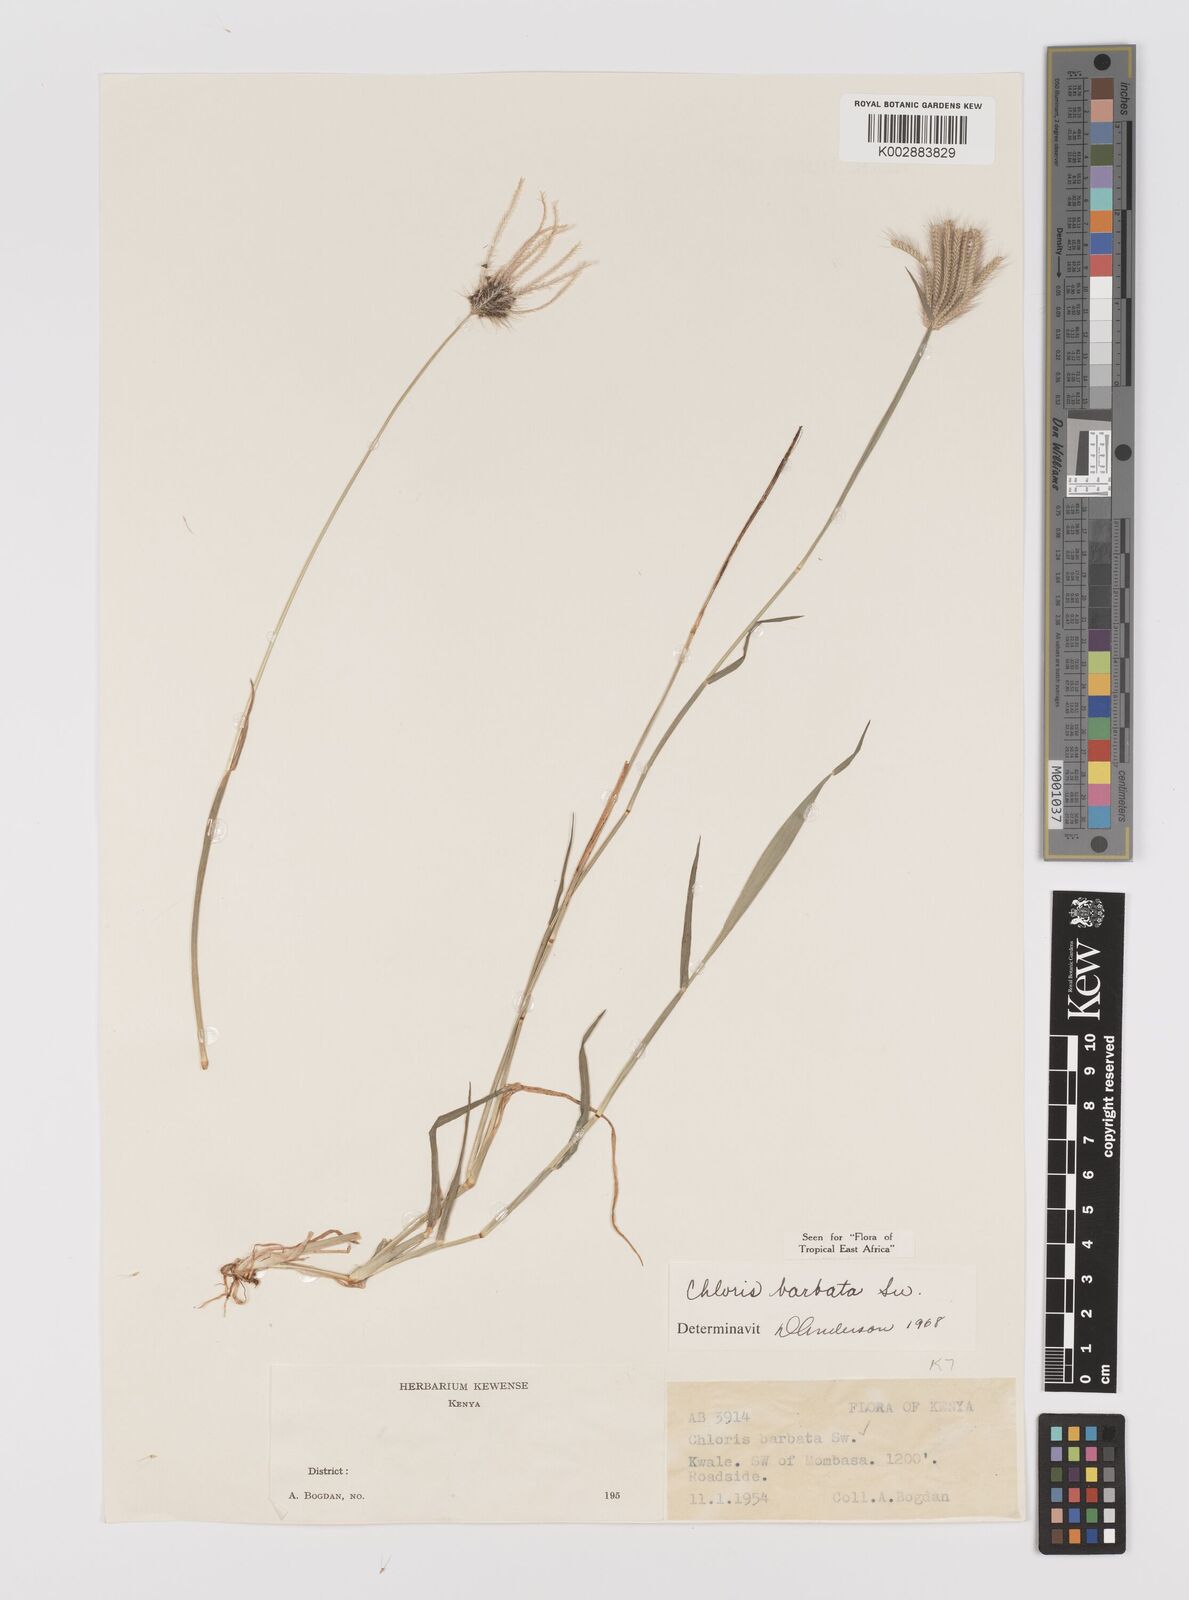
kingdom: Plantae
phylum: Tracheophyta
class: Liliopsida
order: Poales
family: Poaceae
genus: Chloris
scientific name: Chloris barbata
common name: Swollen fingergrass
